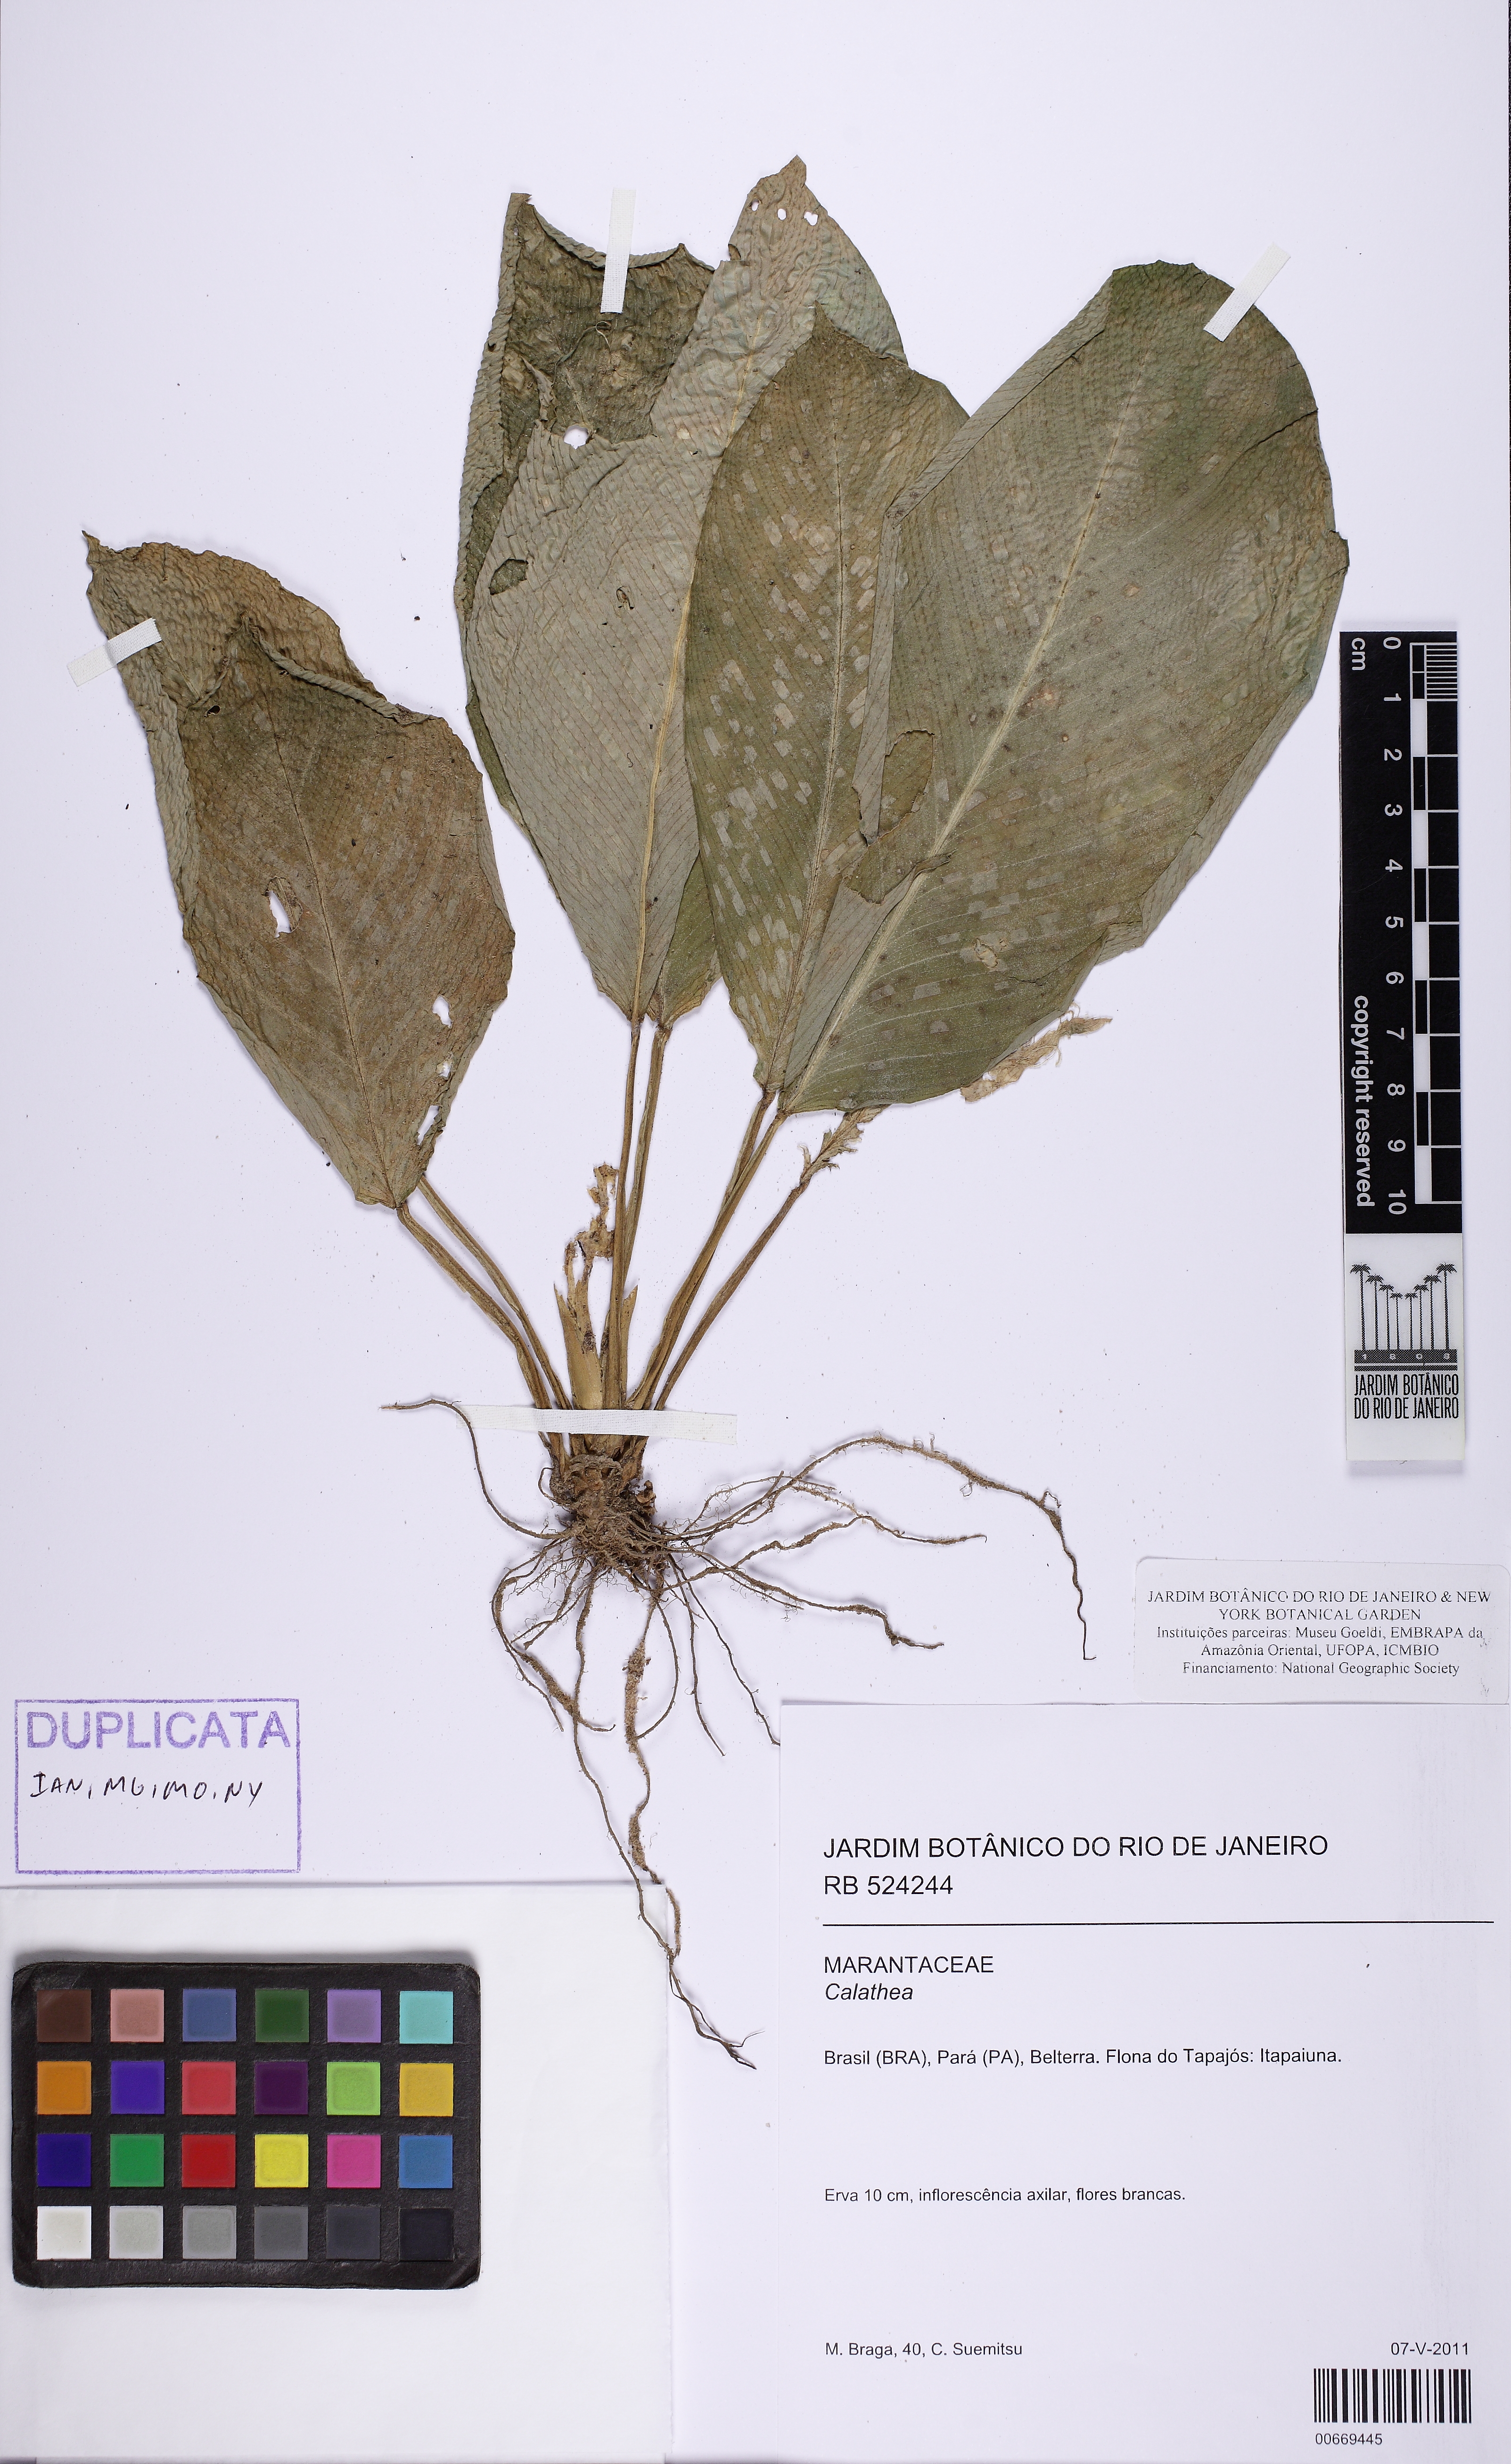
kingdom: Plantae
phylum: Tracheophyta
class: Liliopsida
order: Zingiberales
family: Marantaceae
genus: Calathea
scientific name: Calathea
